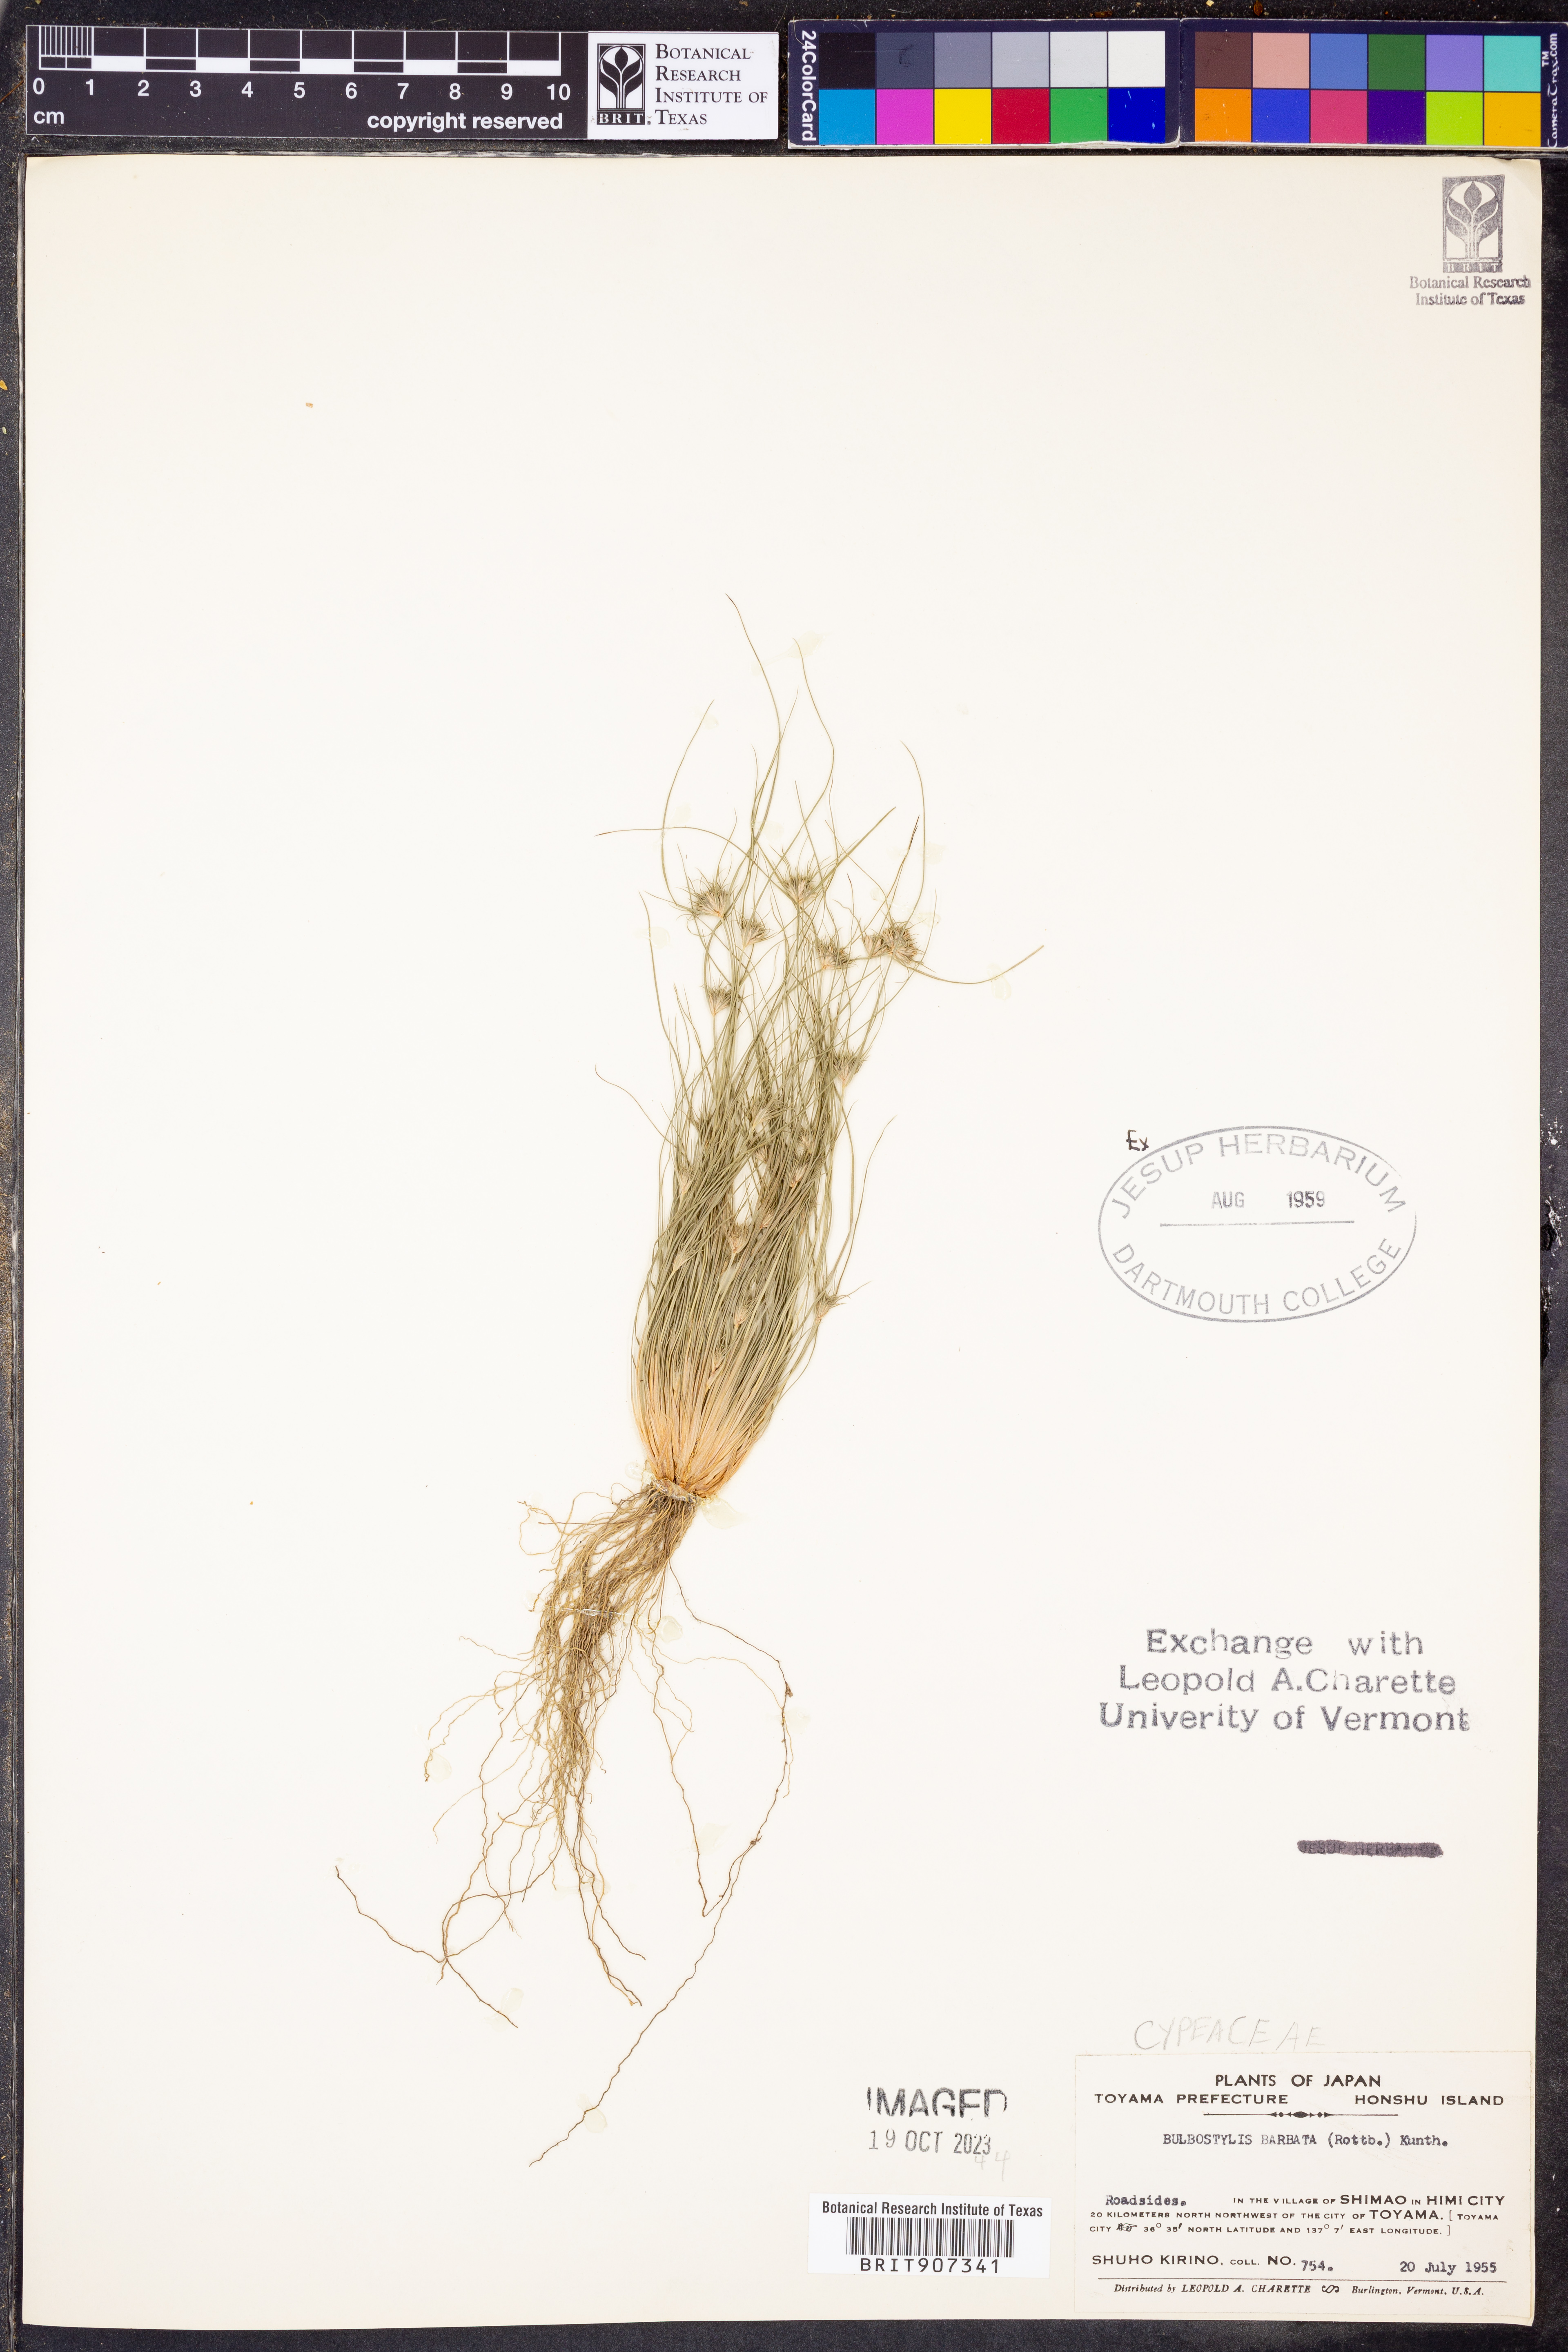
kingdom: Plantae
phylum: Tracheophyta
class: Liliopsida
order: Poales
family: Cyperaceae
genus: Bulbostylis
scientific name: Bulbostylis barbata
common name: Watergrass
